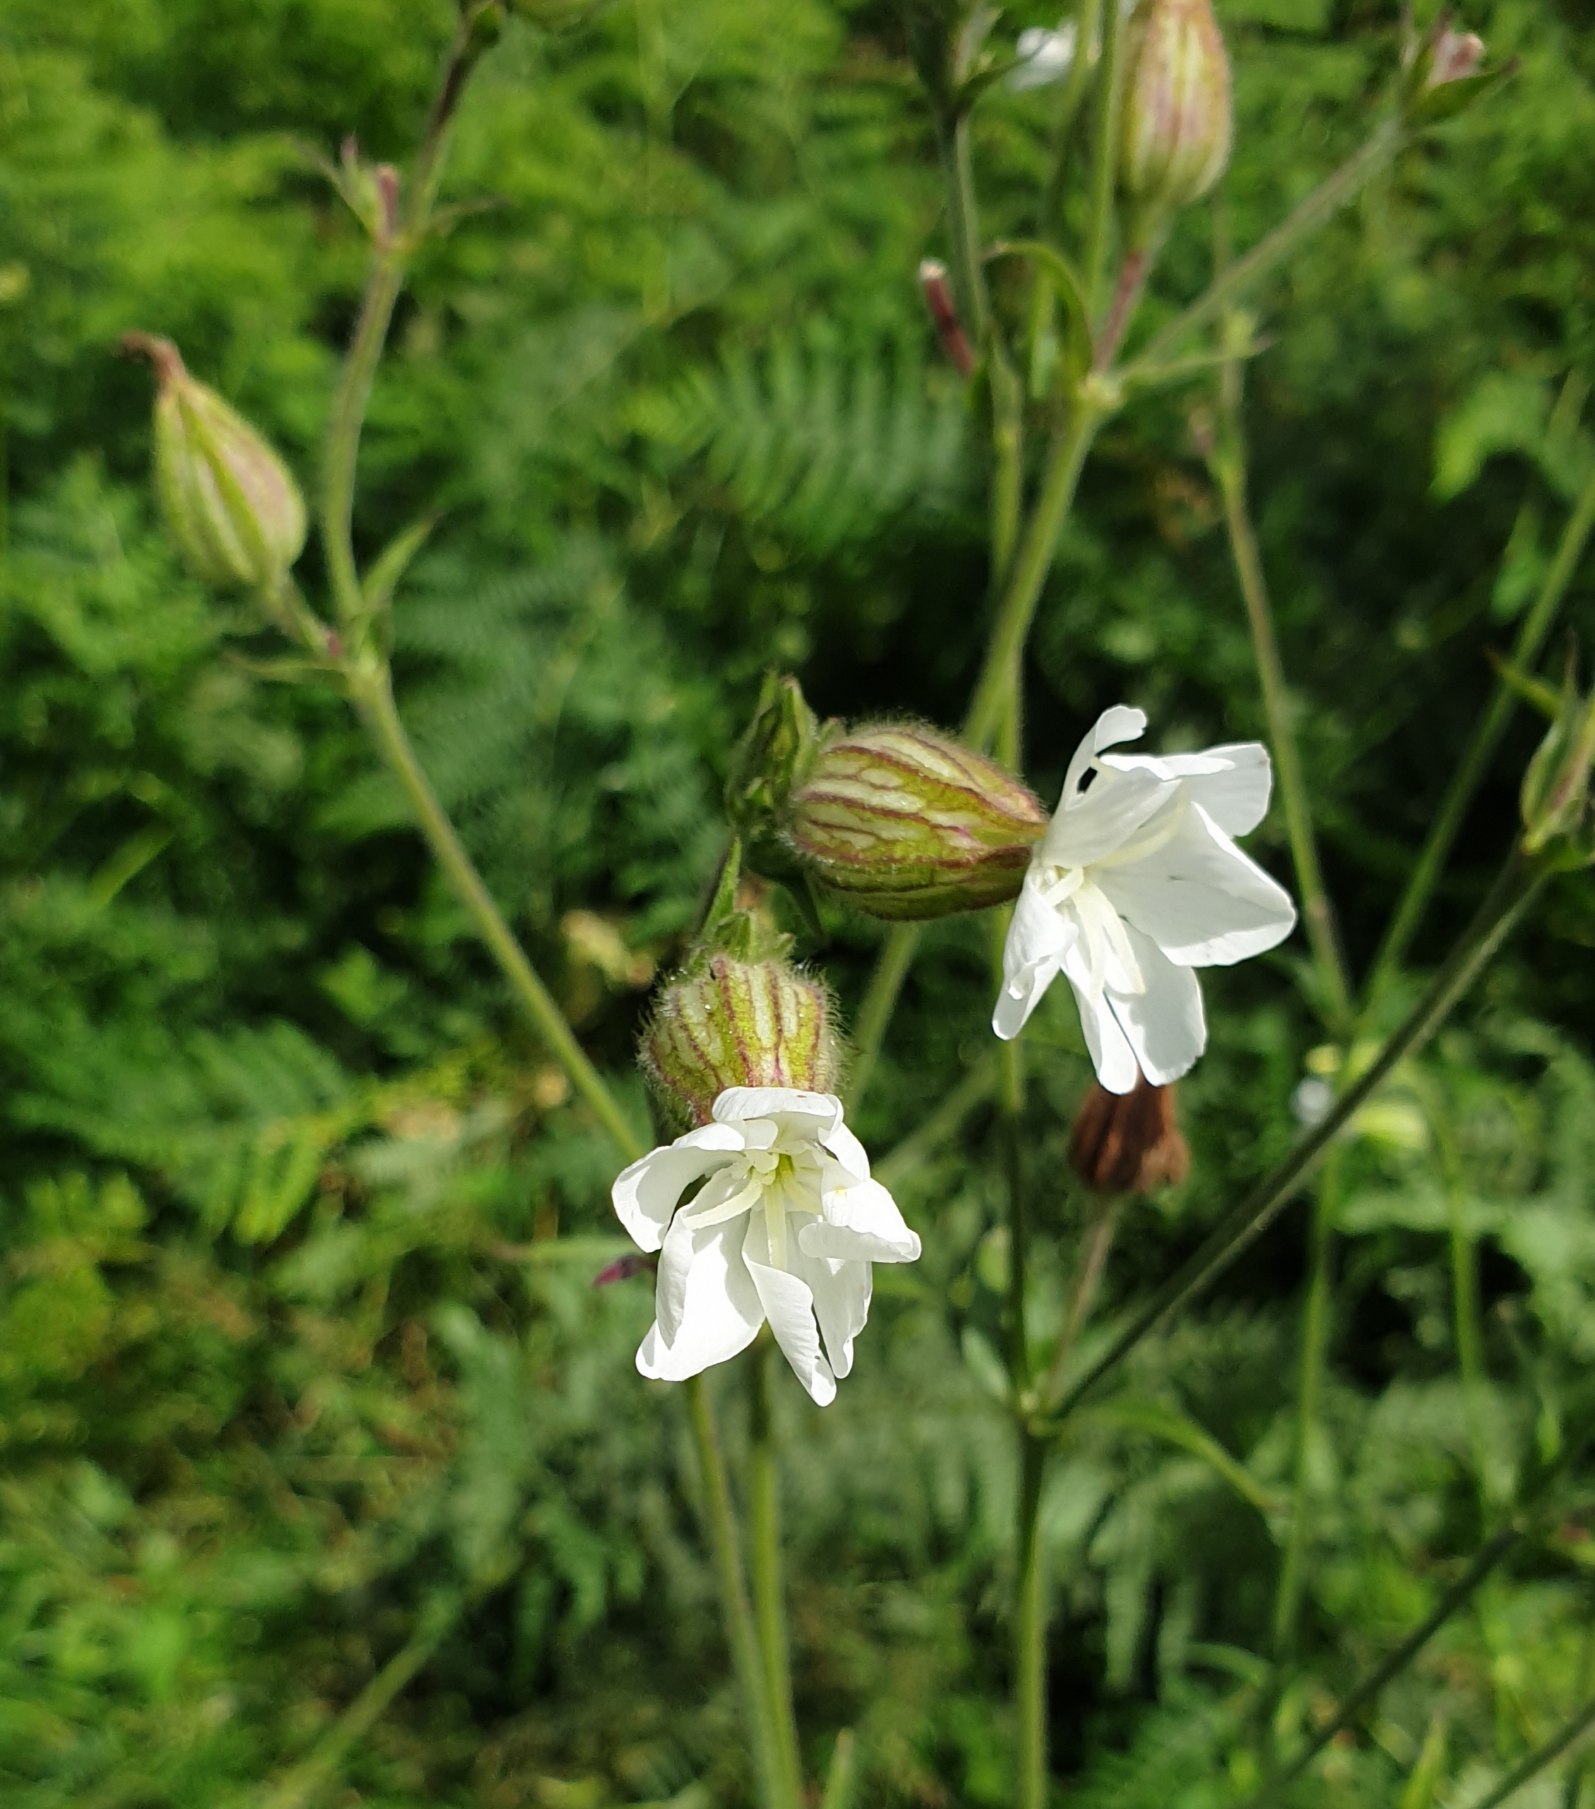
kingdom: Plantae
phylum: Tracheophyta
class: Magnoliopsida
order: Caryophyllales
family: Caryophyllaceae
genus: Silene
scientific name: Silene latifolia
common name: Aftenpragtstjerne
